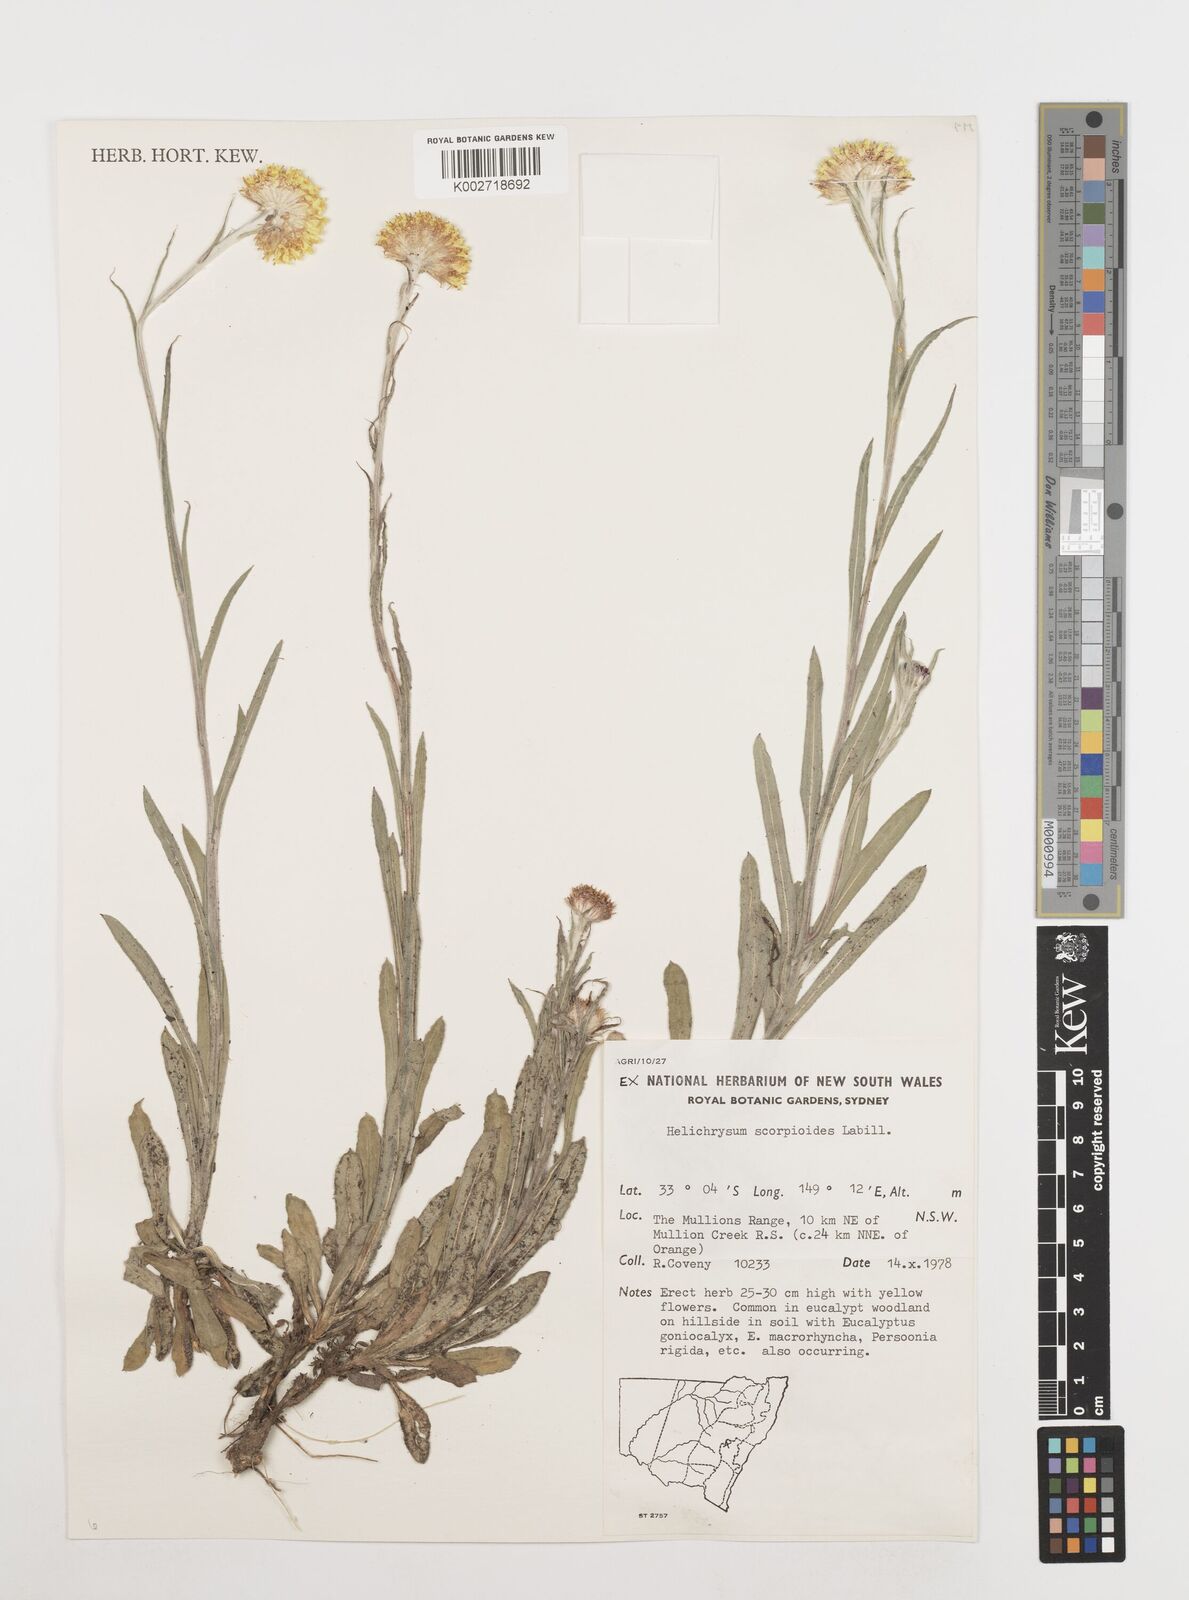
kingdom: Plantae
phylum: Tracheophyta
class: Magnoliopsida
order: Asterales
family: Asteraceae
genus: Coronidium
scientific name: Coronidium scorpioides
